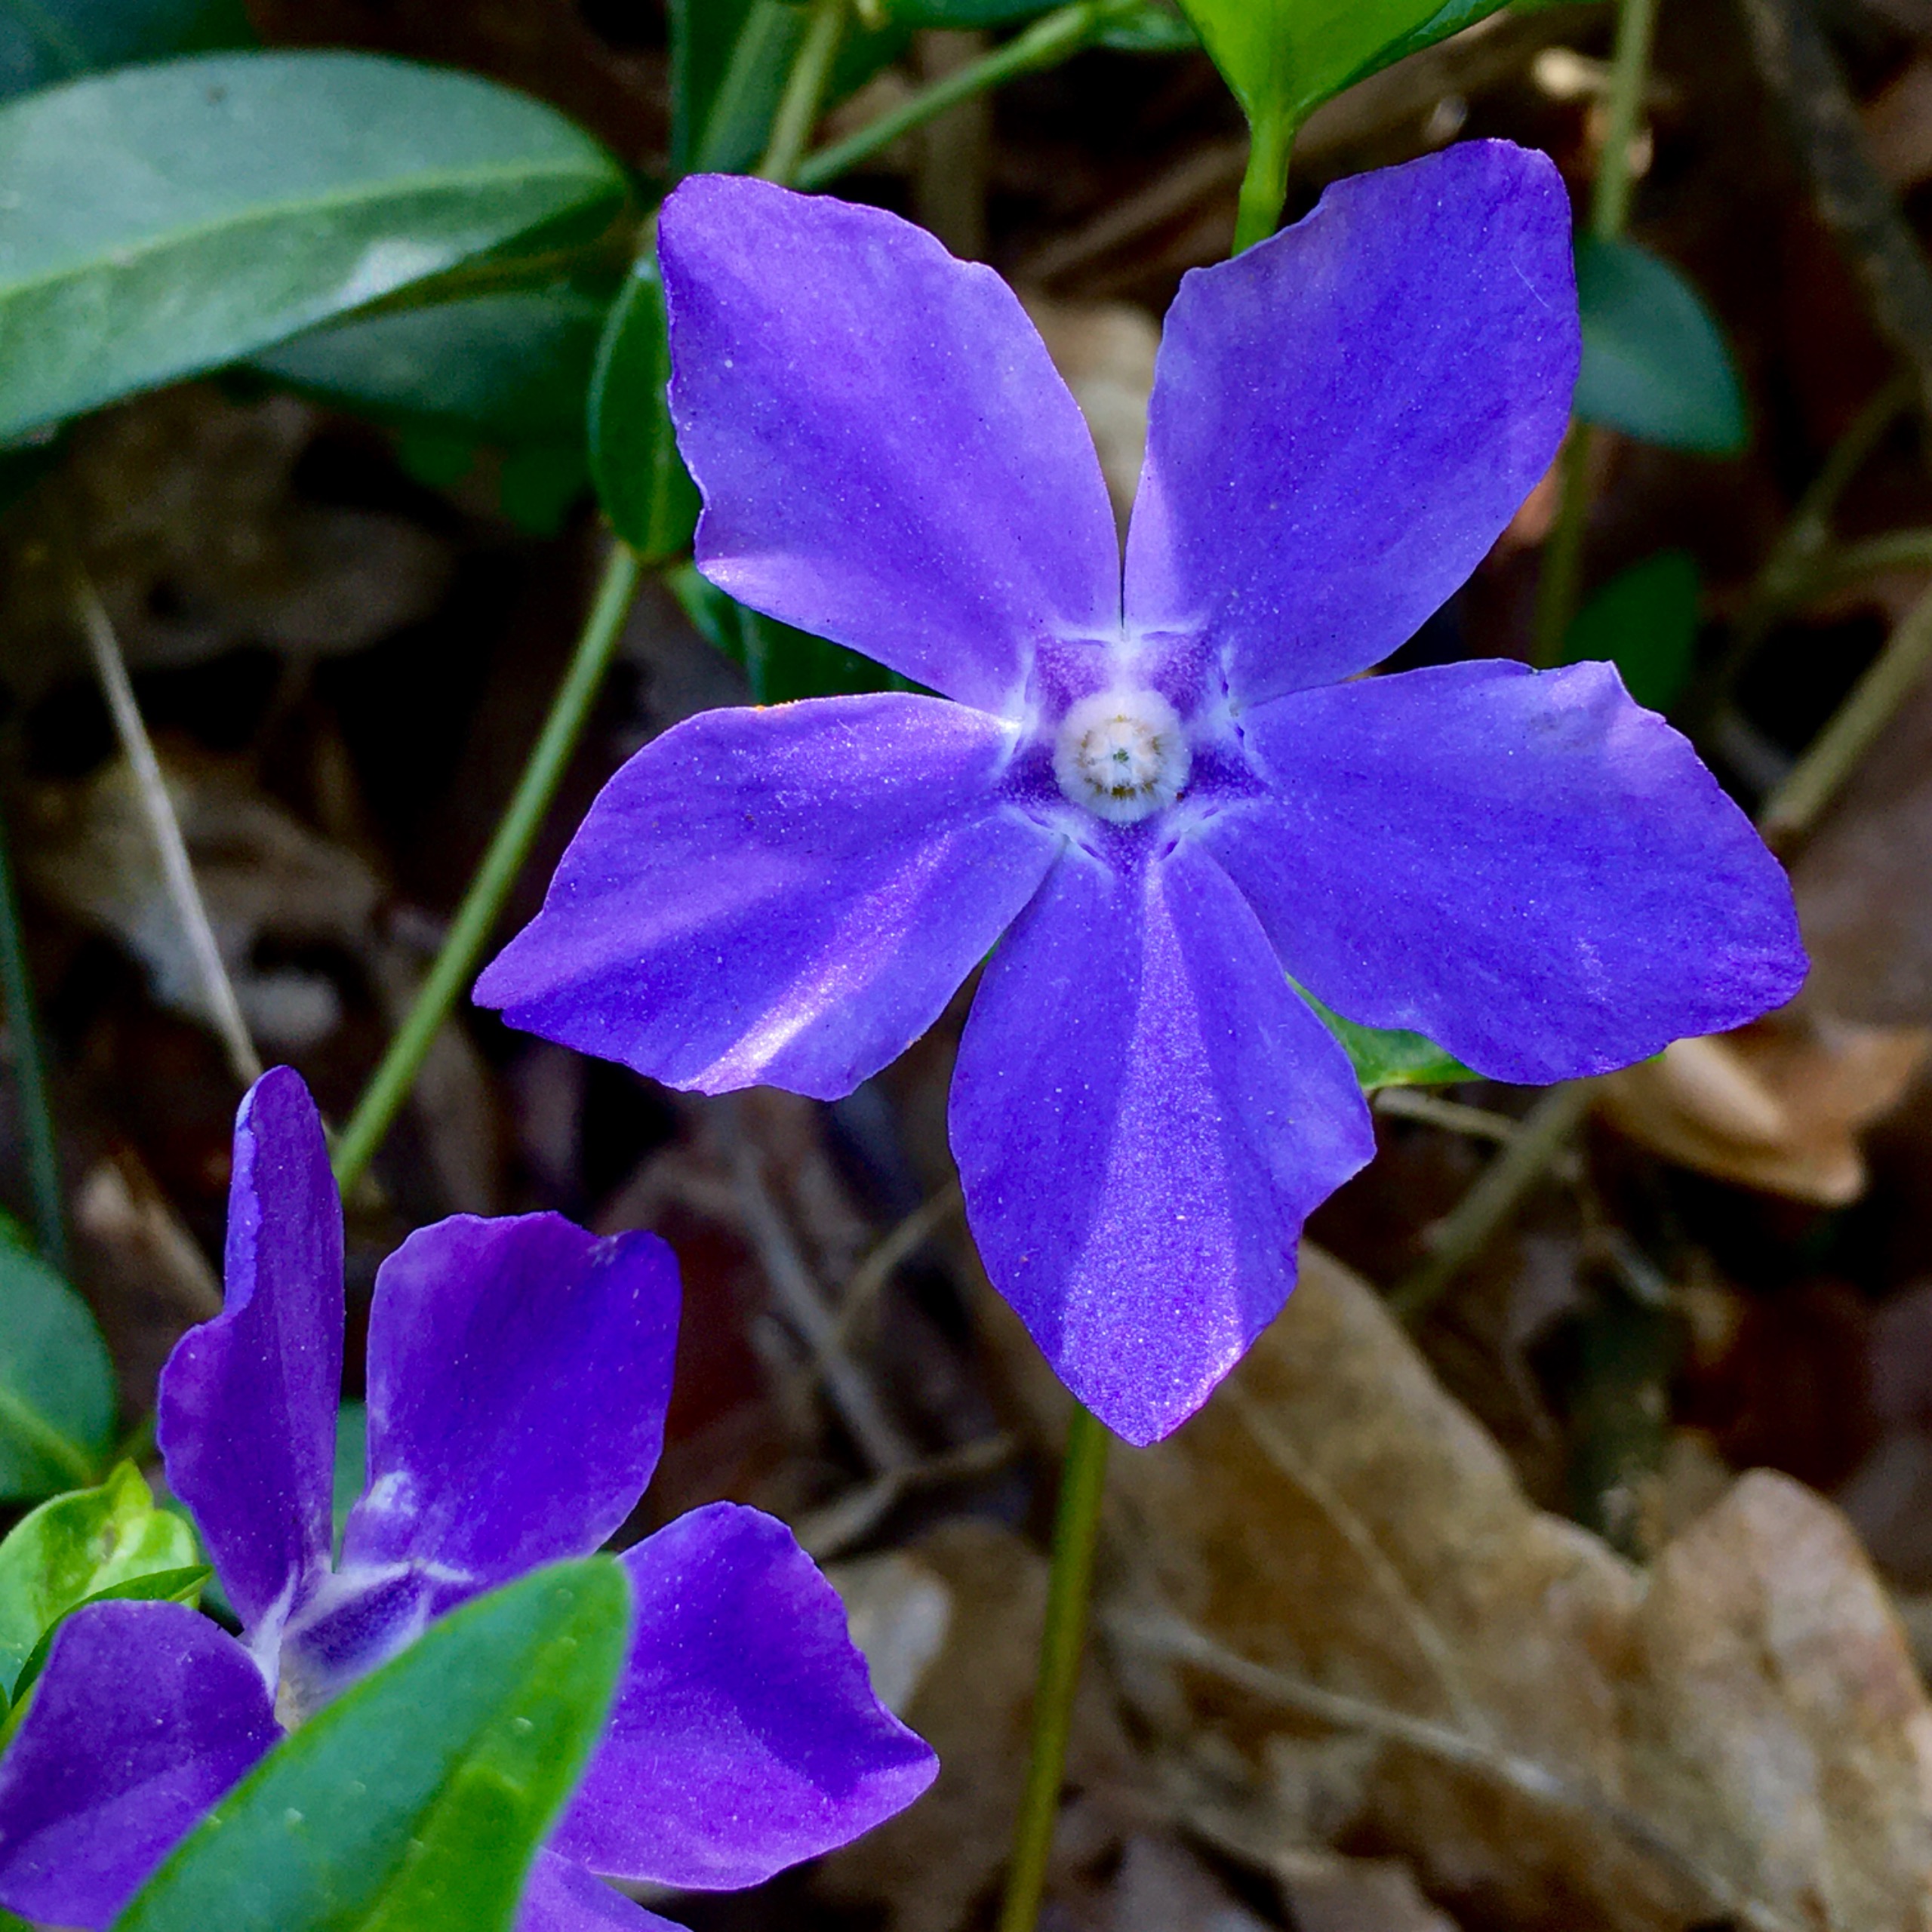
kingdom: Plantae
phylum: Tracheophyta
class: Magnoliopsida
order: Gentianales
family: Apocynaceae
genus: Vinca
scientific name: Vinca minor
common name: Liden singrøn
